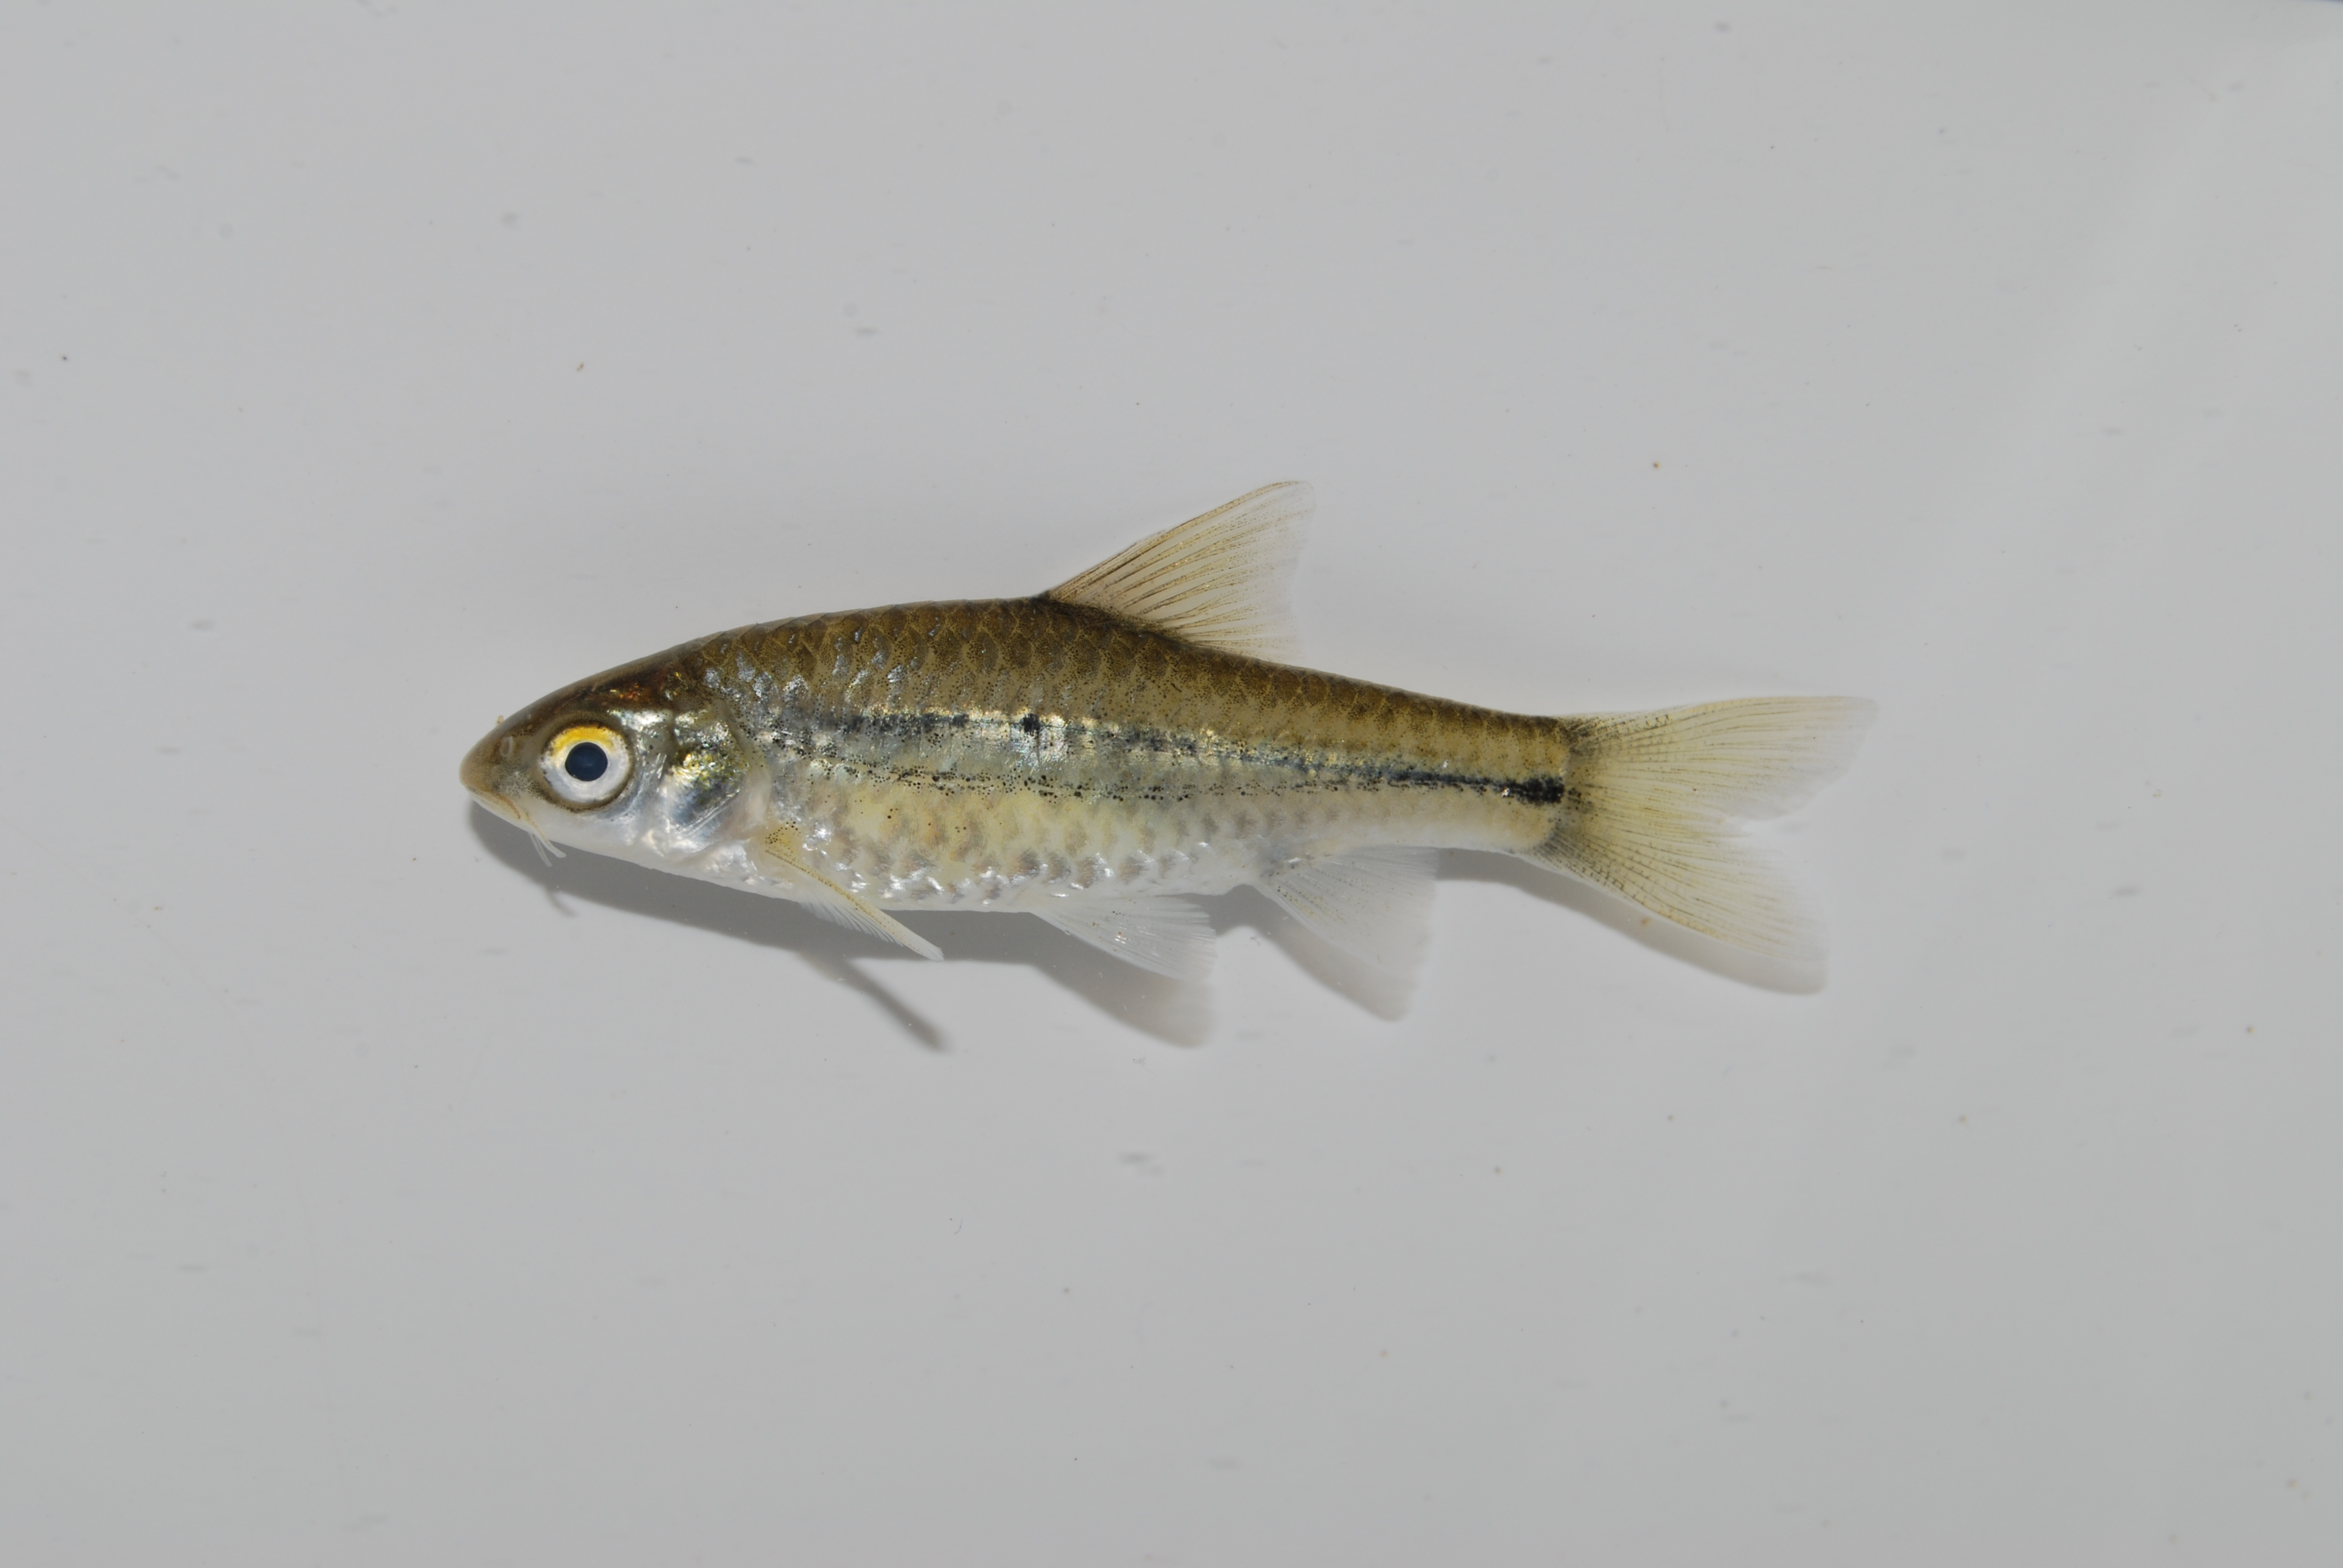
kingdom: Animalia
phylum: Chordata
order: Cypriniformes
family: Cyprinidae
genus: Enteromius
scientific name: Enteromius viviparus
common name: Bowstripe barb
